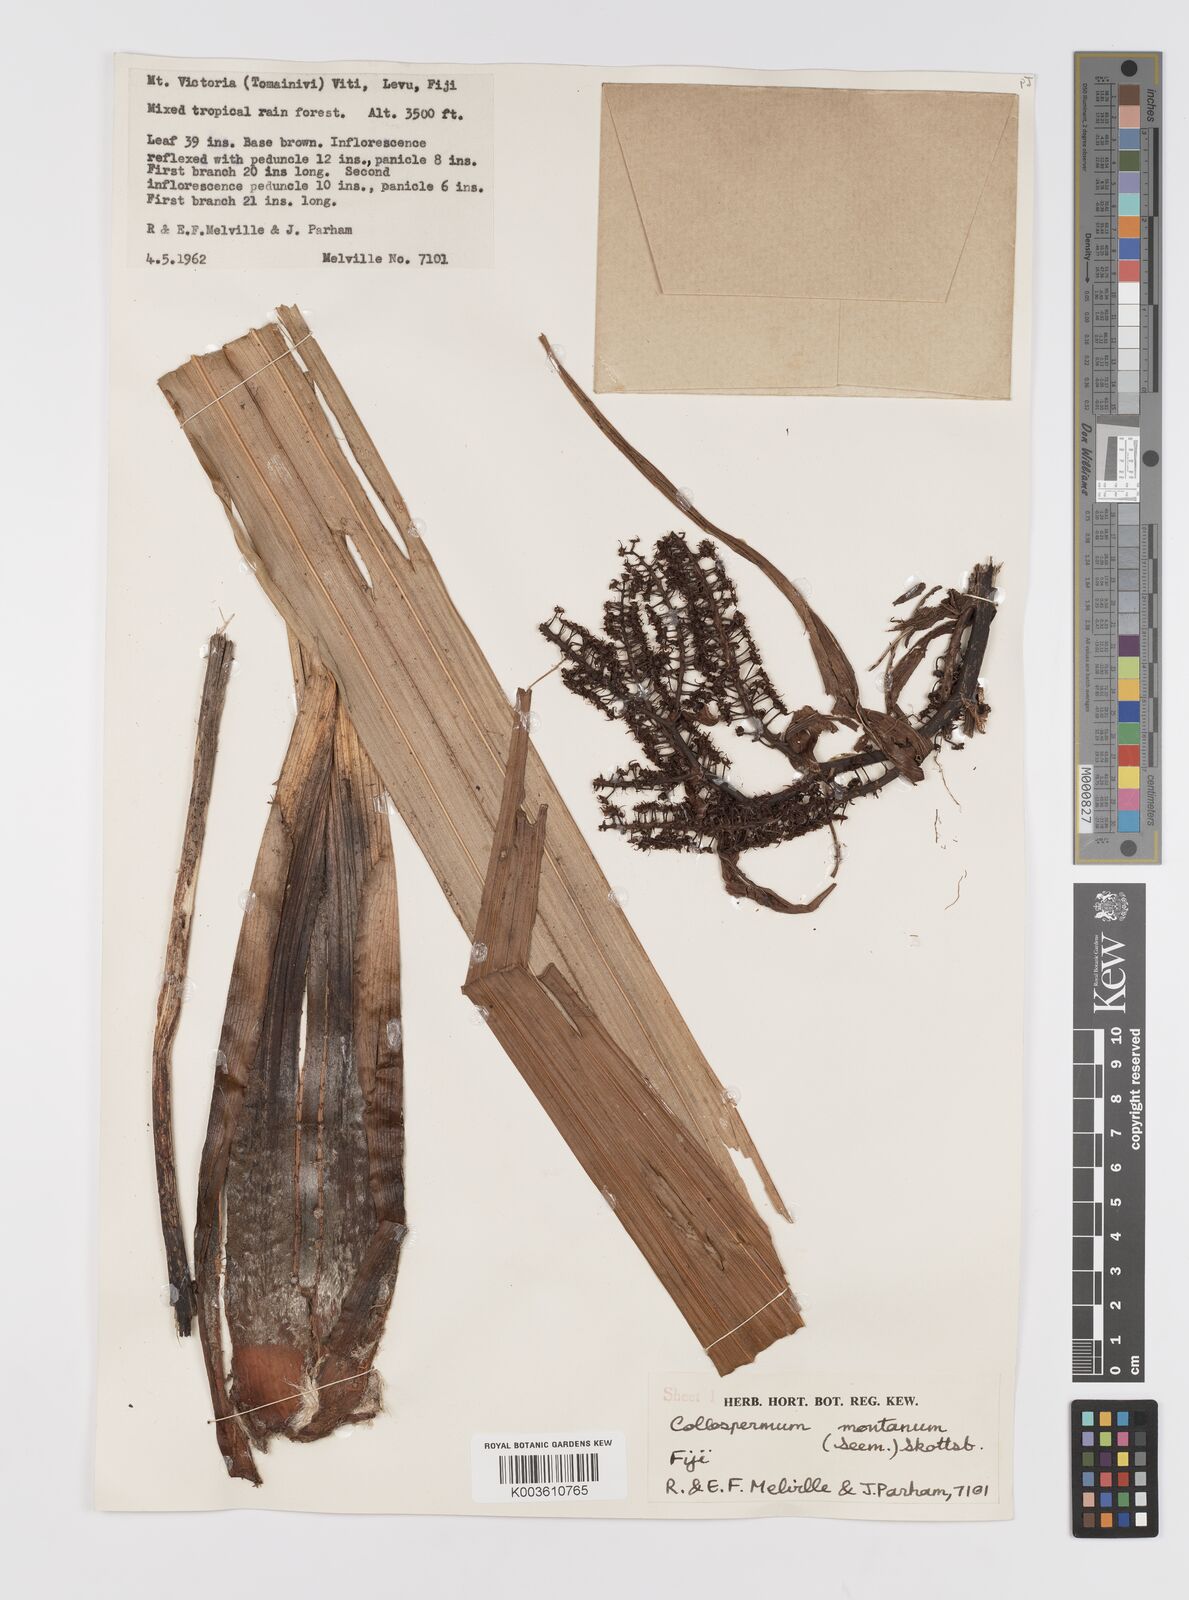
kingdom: Plantae
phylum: Tracheophyta
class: Liliopsida
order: Asparagales
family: Asteliaceae
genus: Astelia
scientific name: Astelia montana
